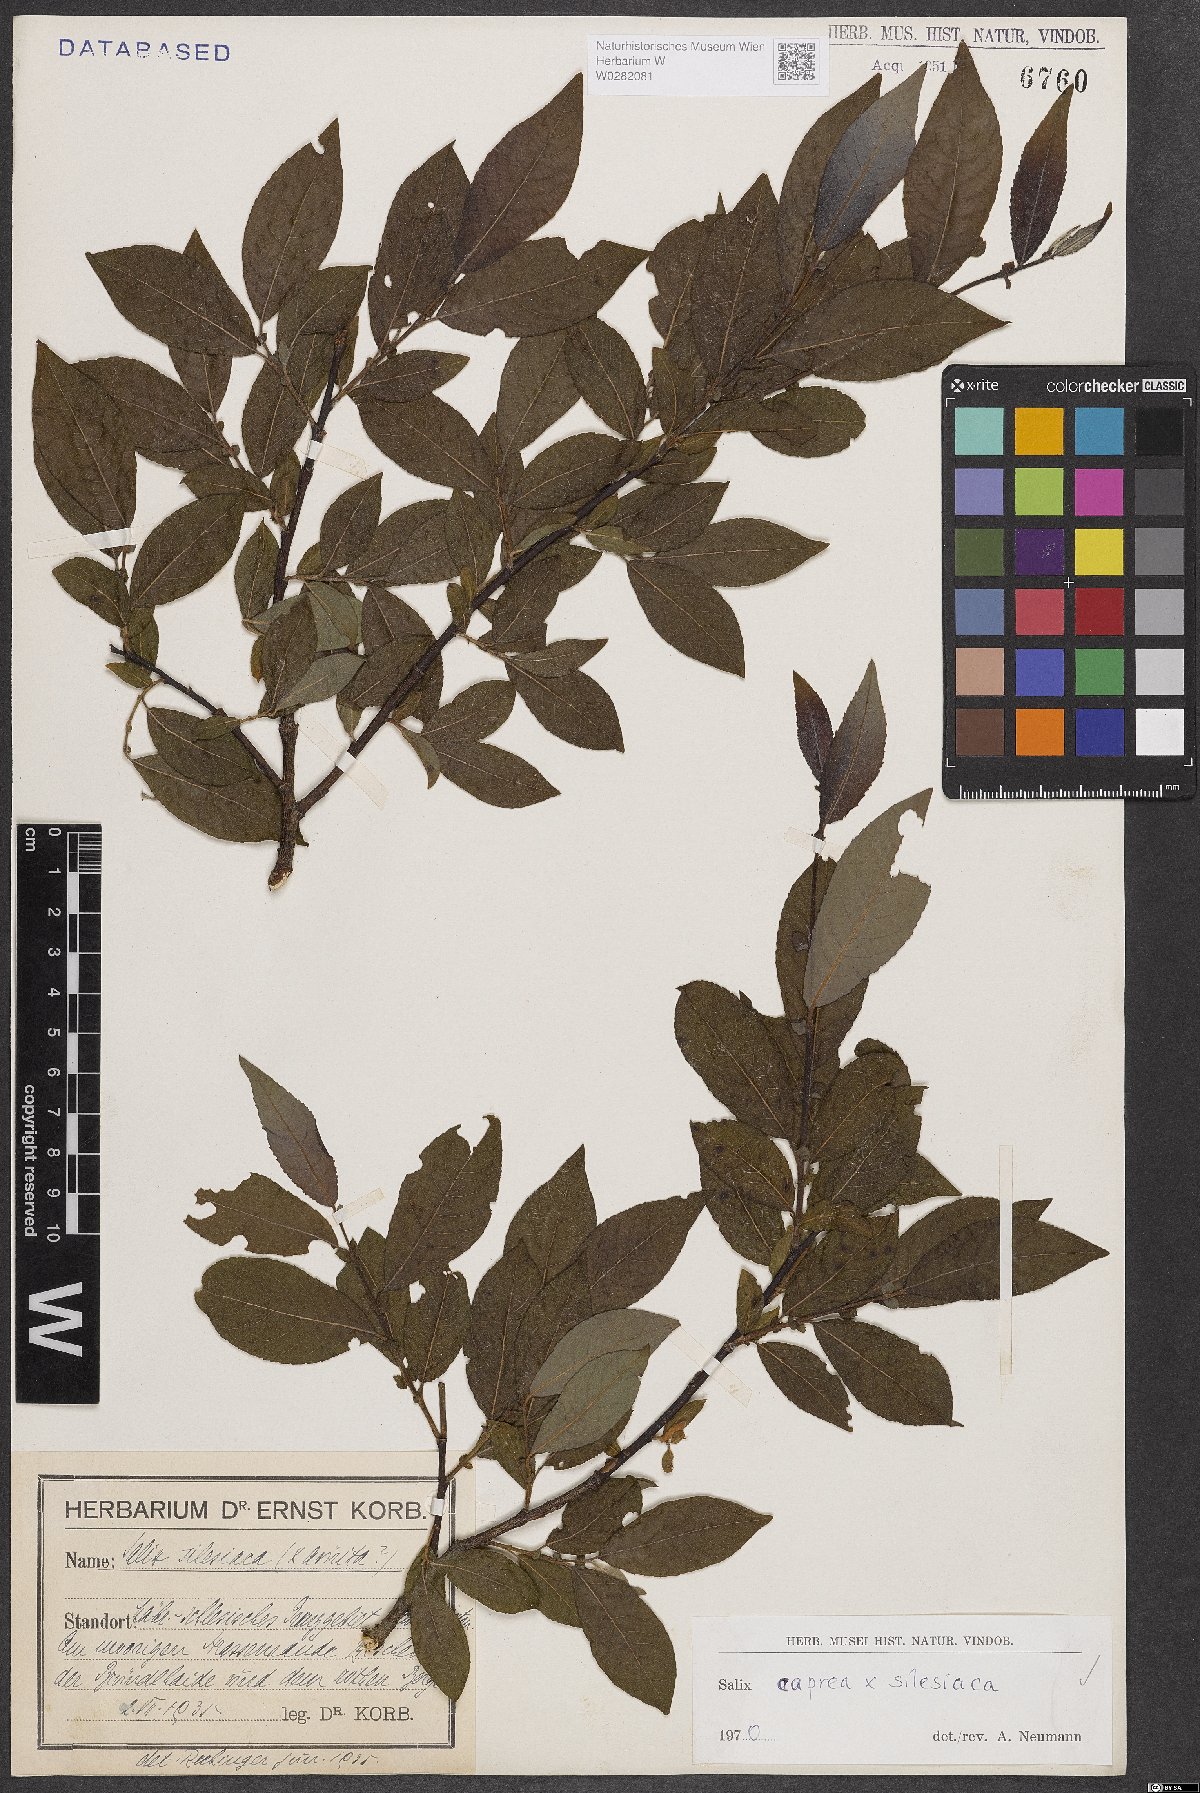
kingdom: Plantae
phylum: Tracheophyta
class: Magnoliopsida
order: Malpighiales
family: Salicaceae
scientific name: Salicaceae
